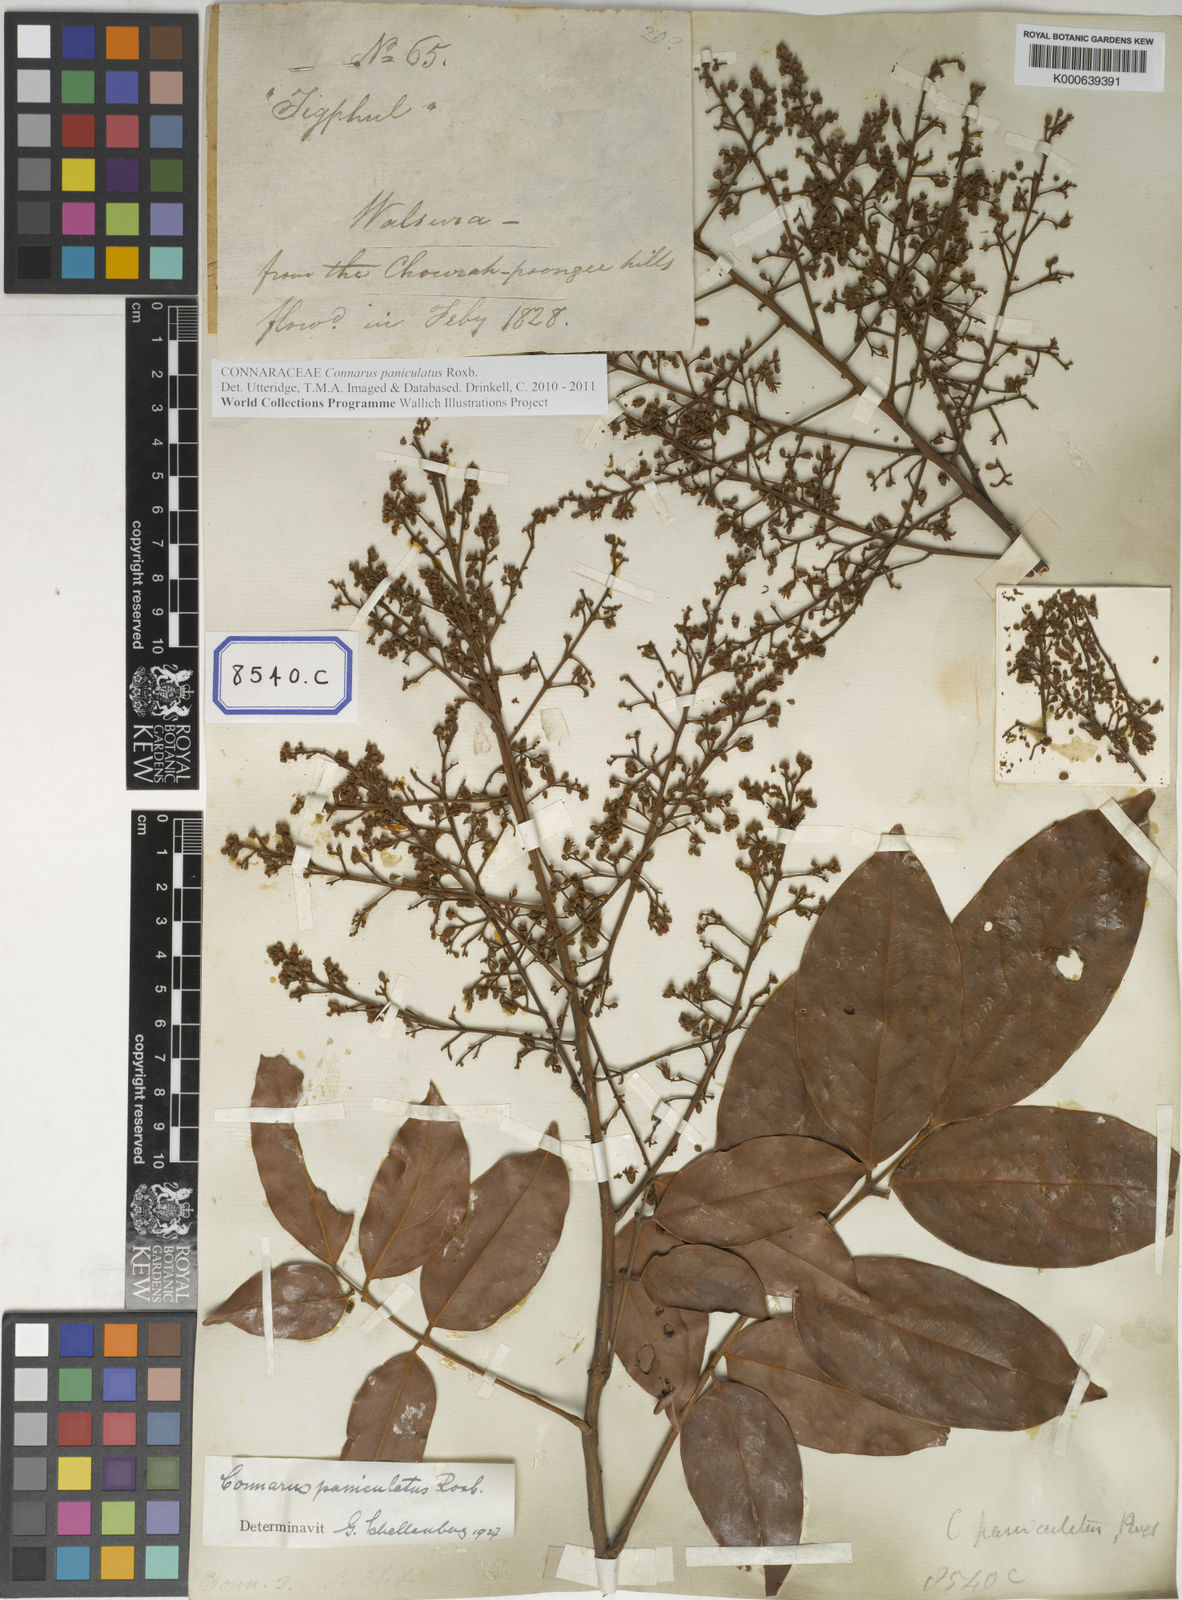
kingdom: Plantae
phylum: Tracheophyta
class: Magnoliopsida
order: Oxalidales
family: Connaraceae
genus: Connarus
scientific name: Connarus paniculatus
